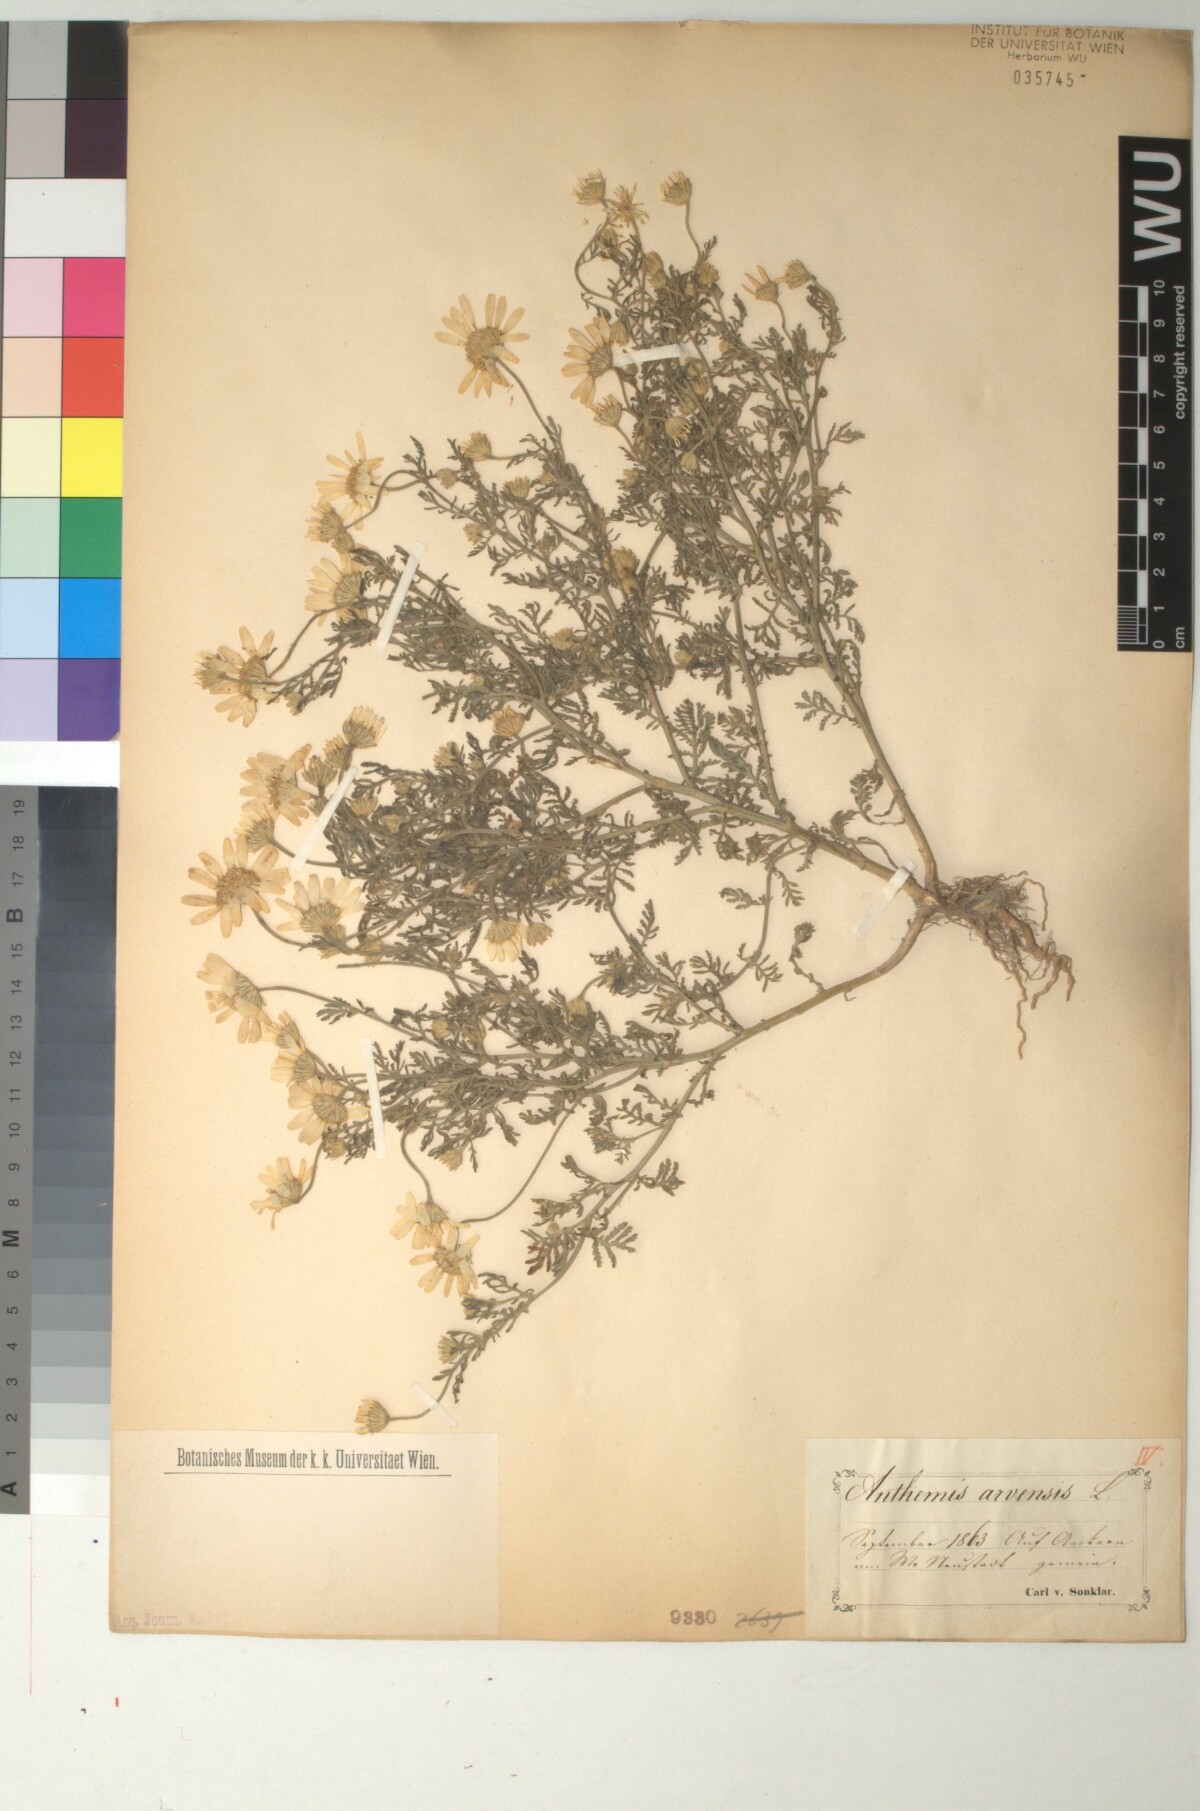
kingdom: Plantae
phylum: Tracheophyta
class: Magnoliopsida
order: Asterales
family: Asteraceae
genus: Anthemis
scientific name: Anthemis arvensis
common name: Corn chamomile
